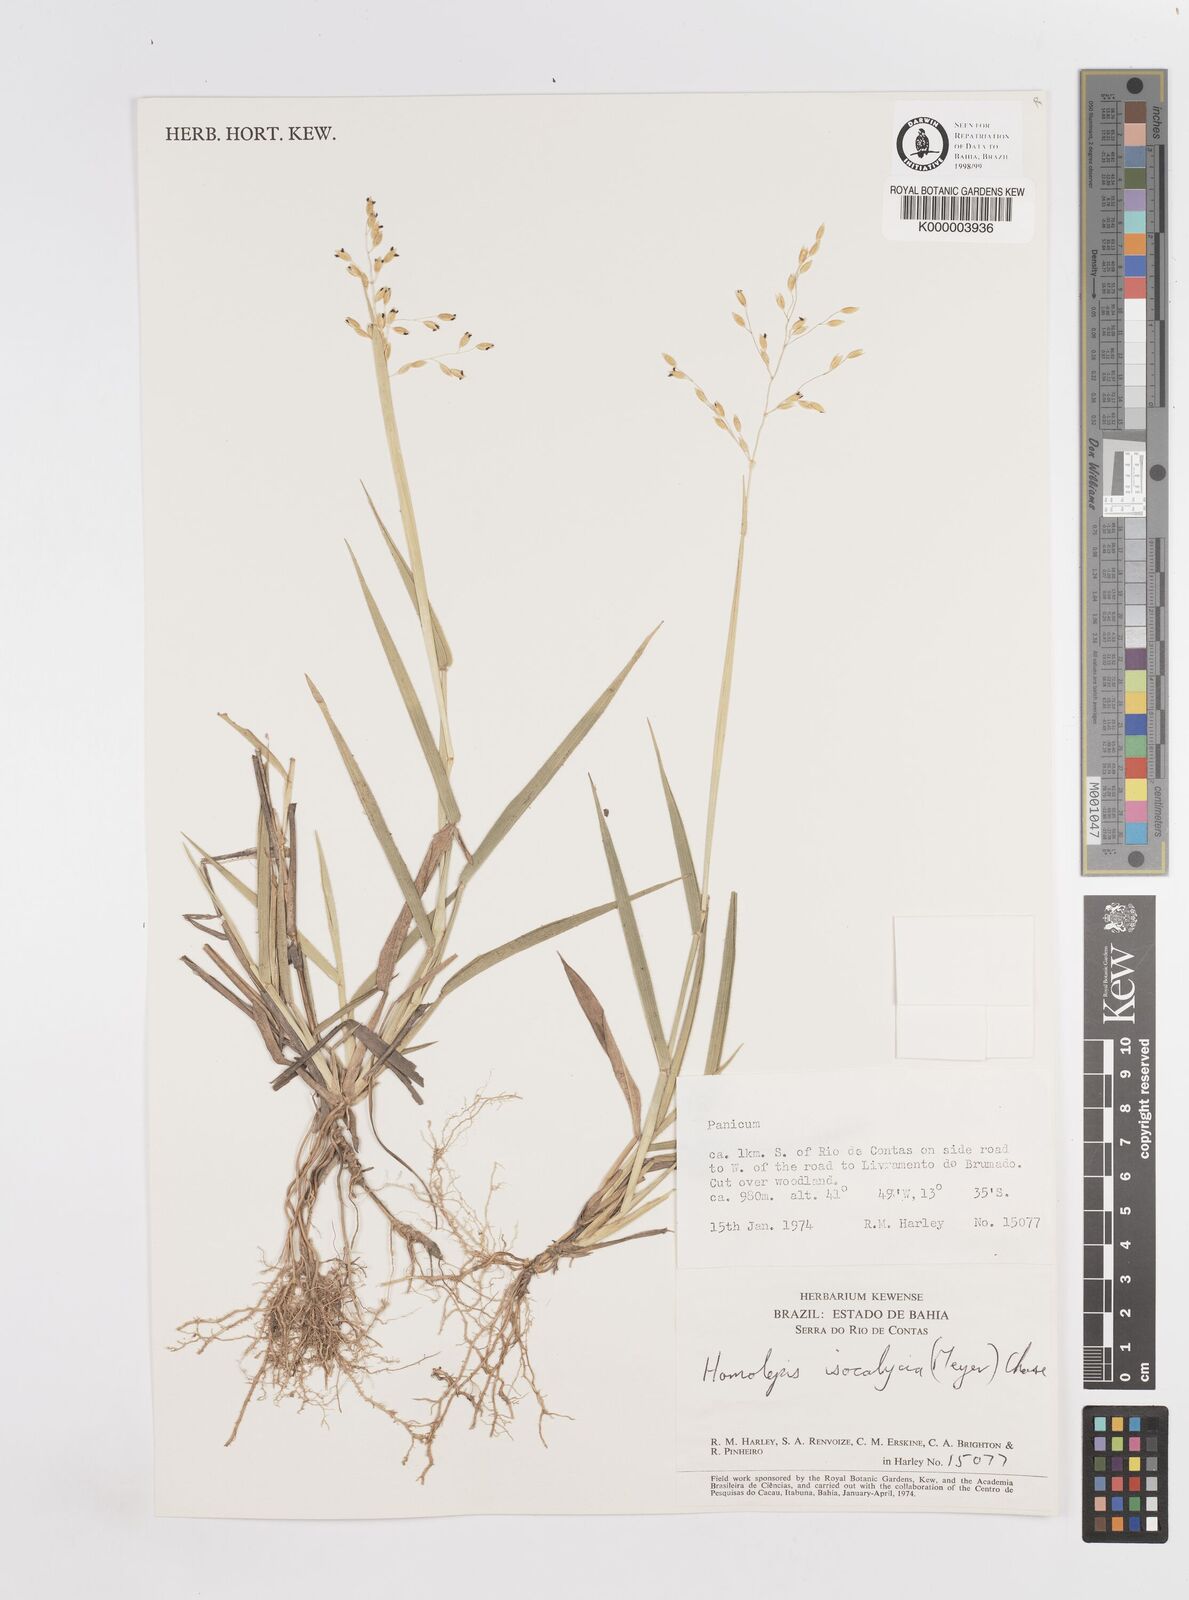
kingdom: Plantae
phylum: Tracheophyta
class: Liliopsida
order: Poales
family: Poaceae
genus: Homolepis
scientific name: Homolepis
